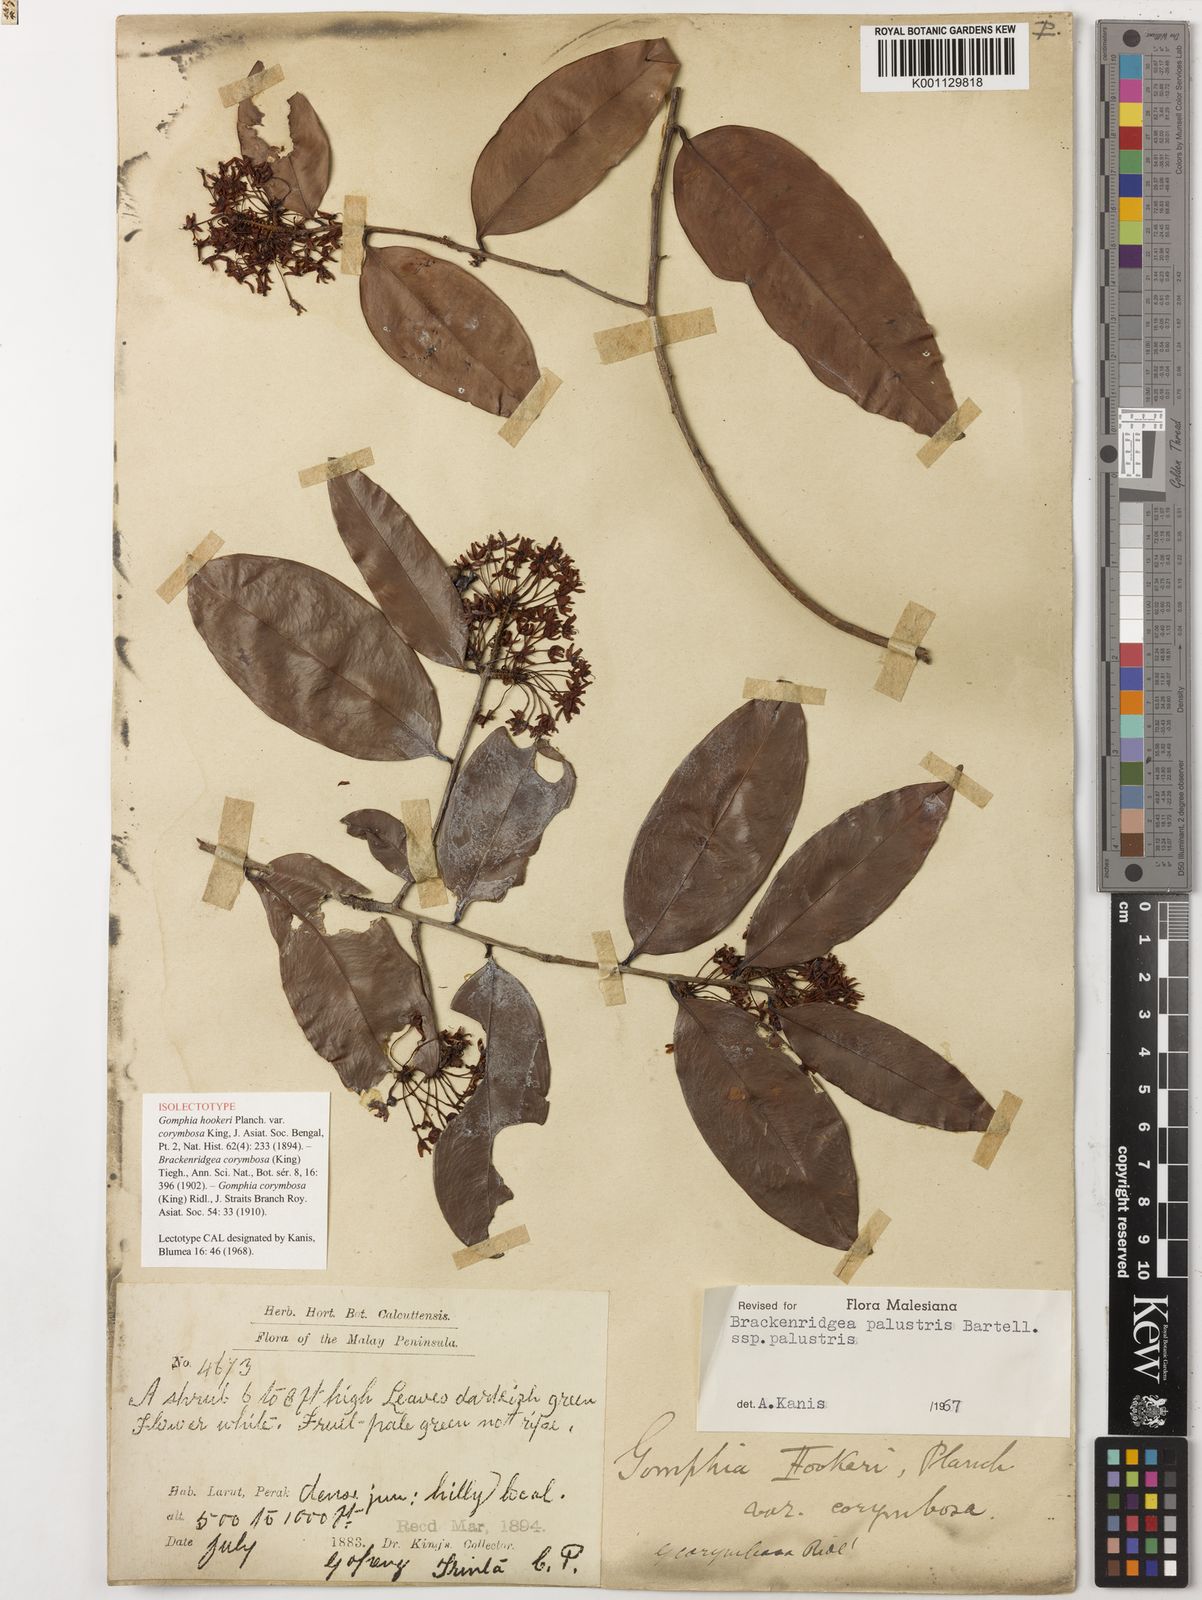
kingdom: Plantae
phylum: Tracheophyta
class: Magnoliopsida
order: Malpighiales
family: Ochnaceae
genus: Brackenridgea
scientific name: Brackenridgea palustris
